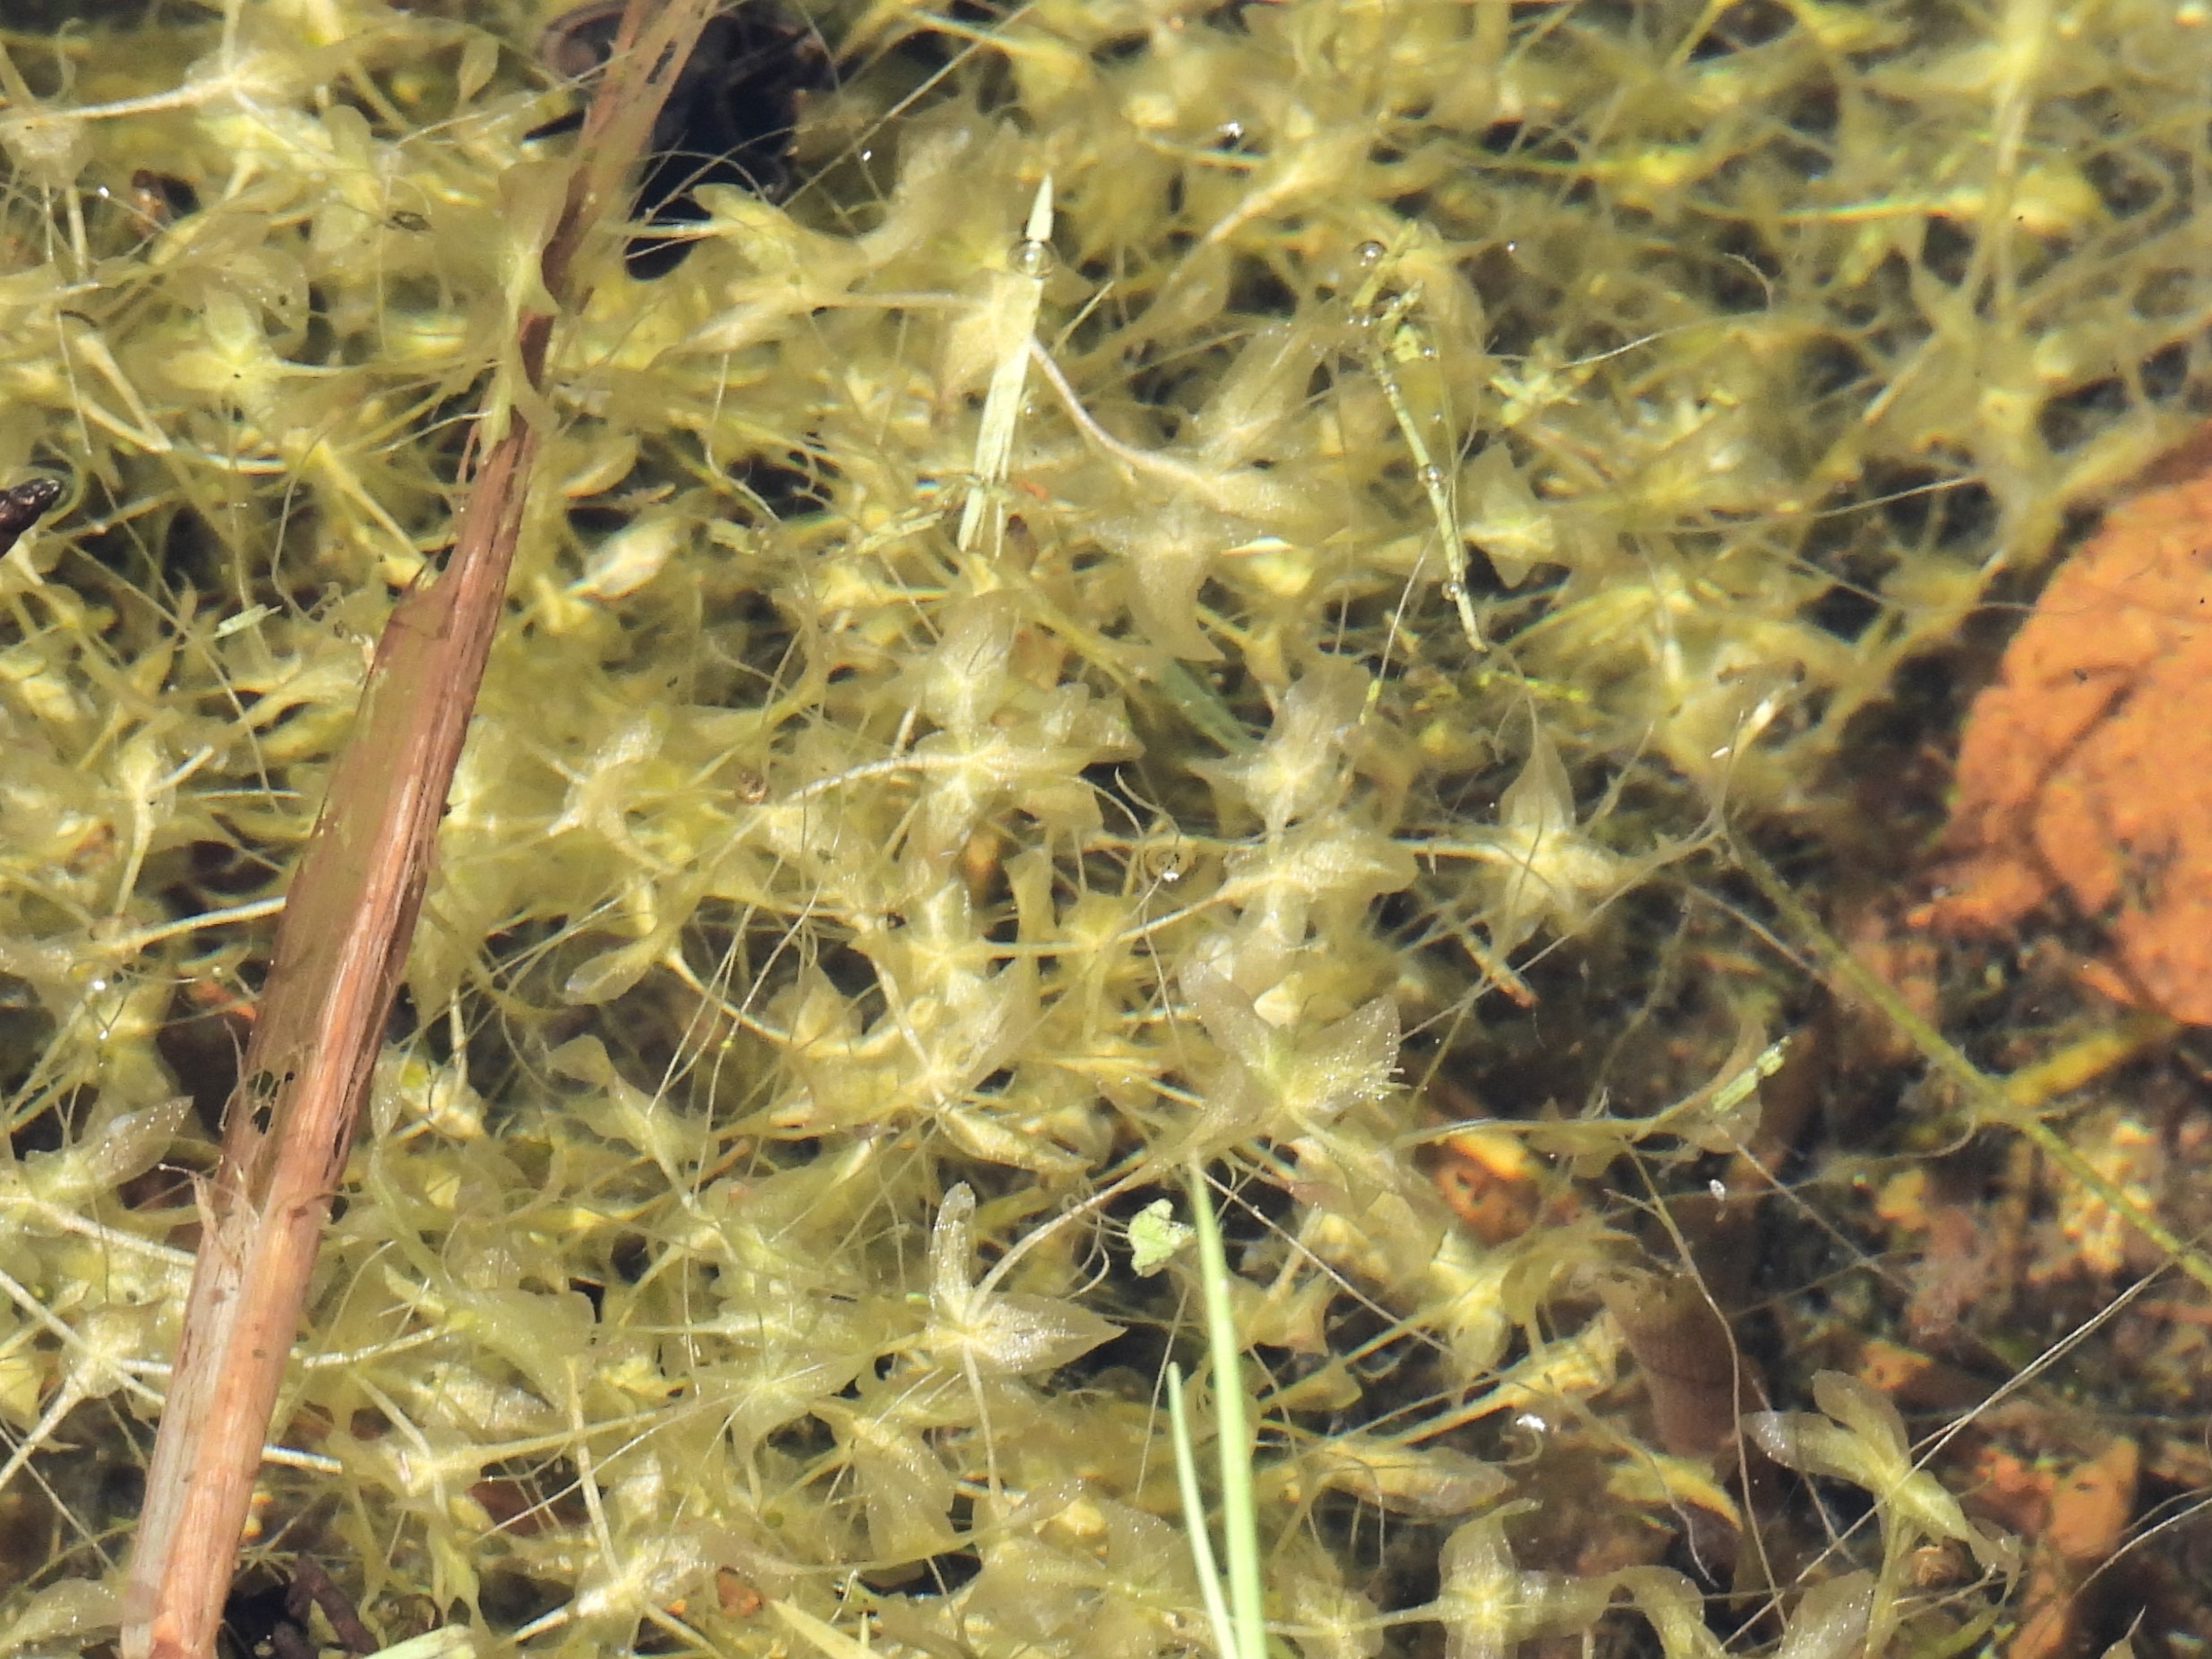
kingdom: Plantae
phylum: Tracheophyta
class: Liliopsida
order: Alismatales
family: Araceae
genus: Lemna
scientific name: Lemna trisulca
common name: Kors-andemad
